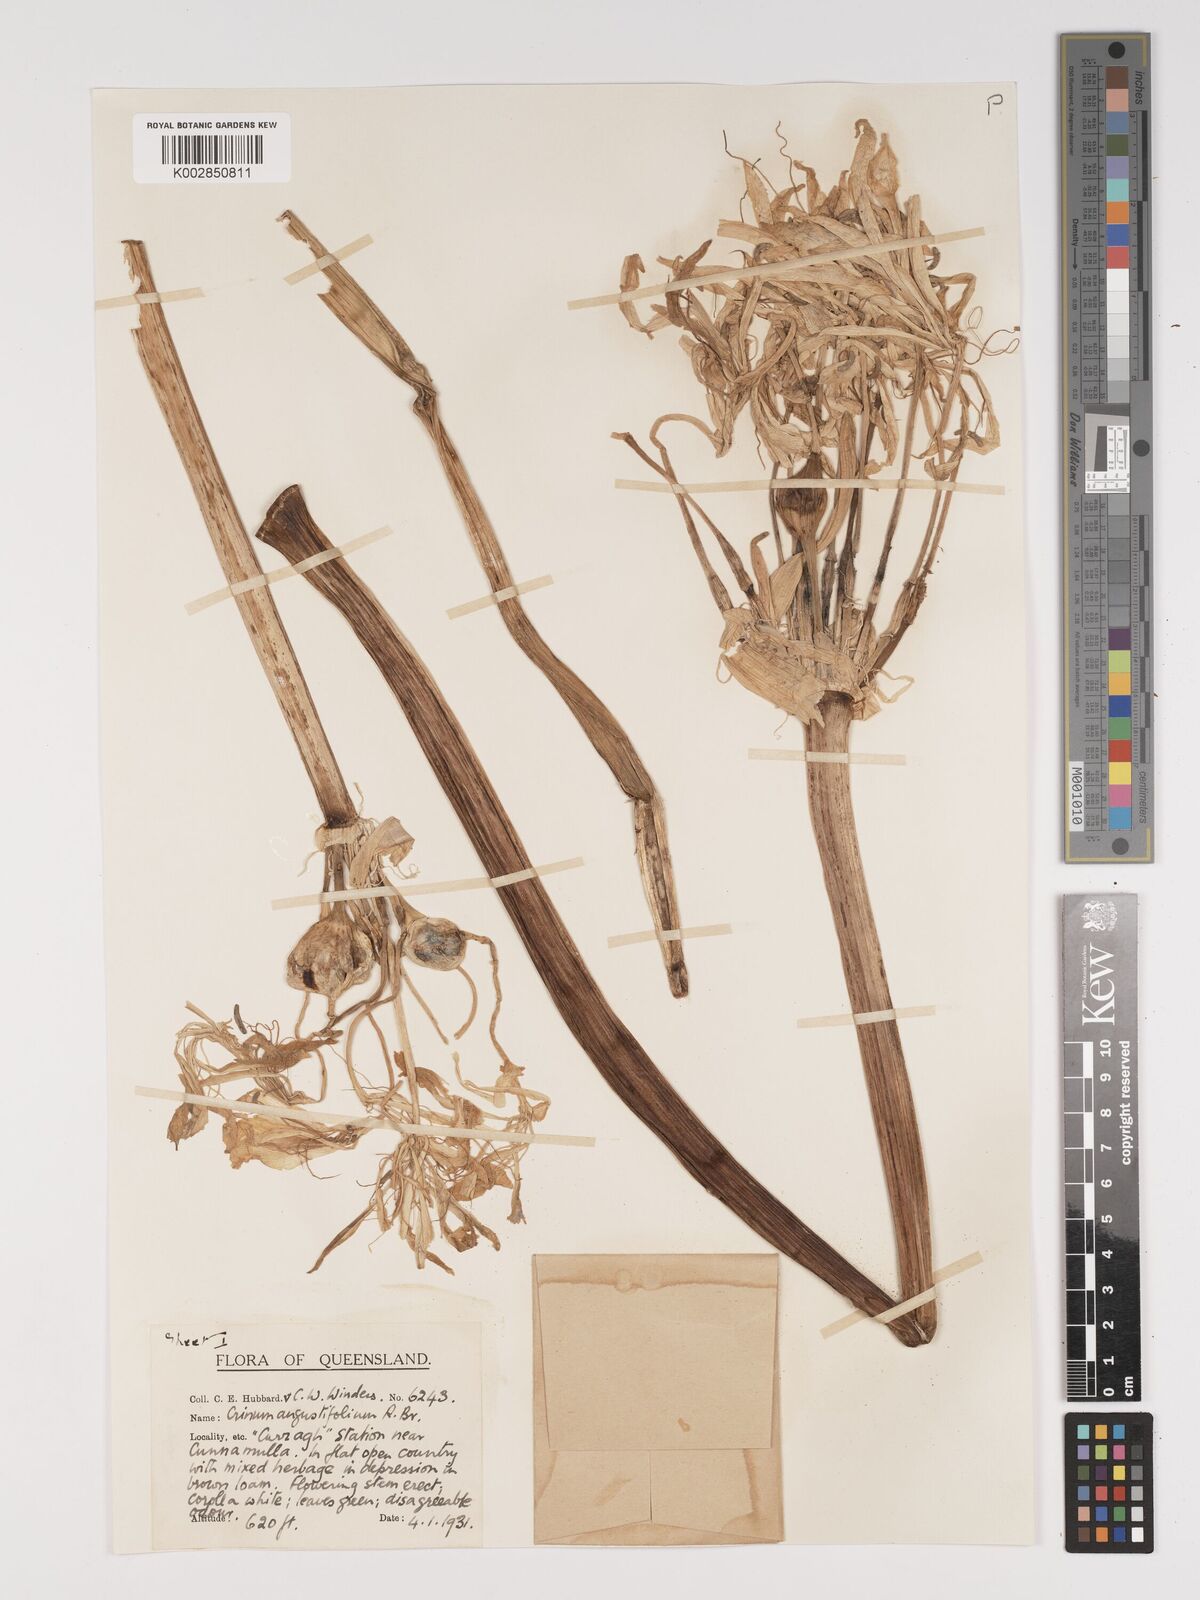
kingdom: Plantae
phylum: Tracheophyta
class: Liliopsida
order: Asparagales
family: Amaryllidaceae
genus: Crinum
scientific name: Crinum arenarium
